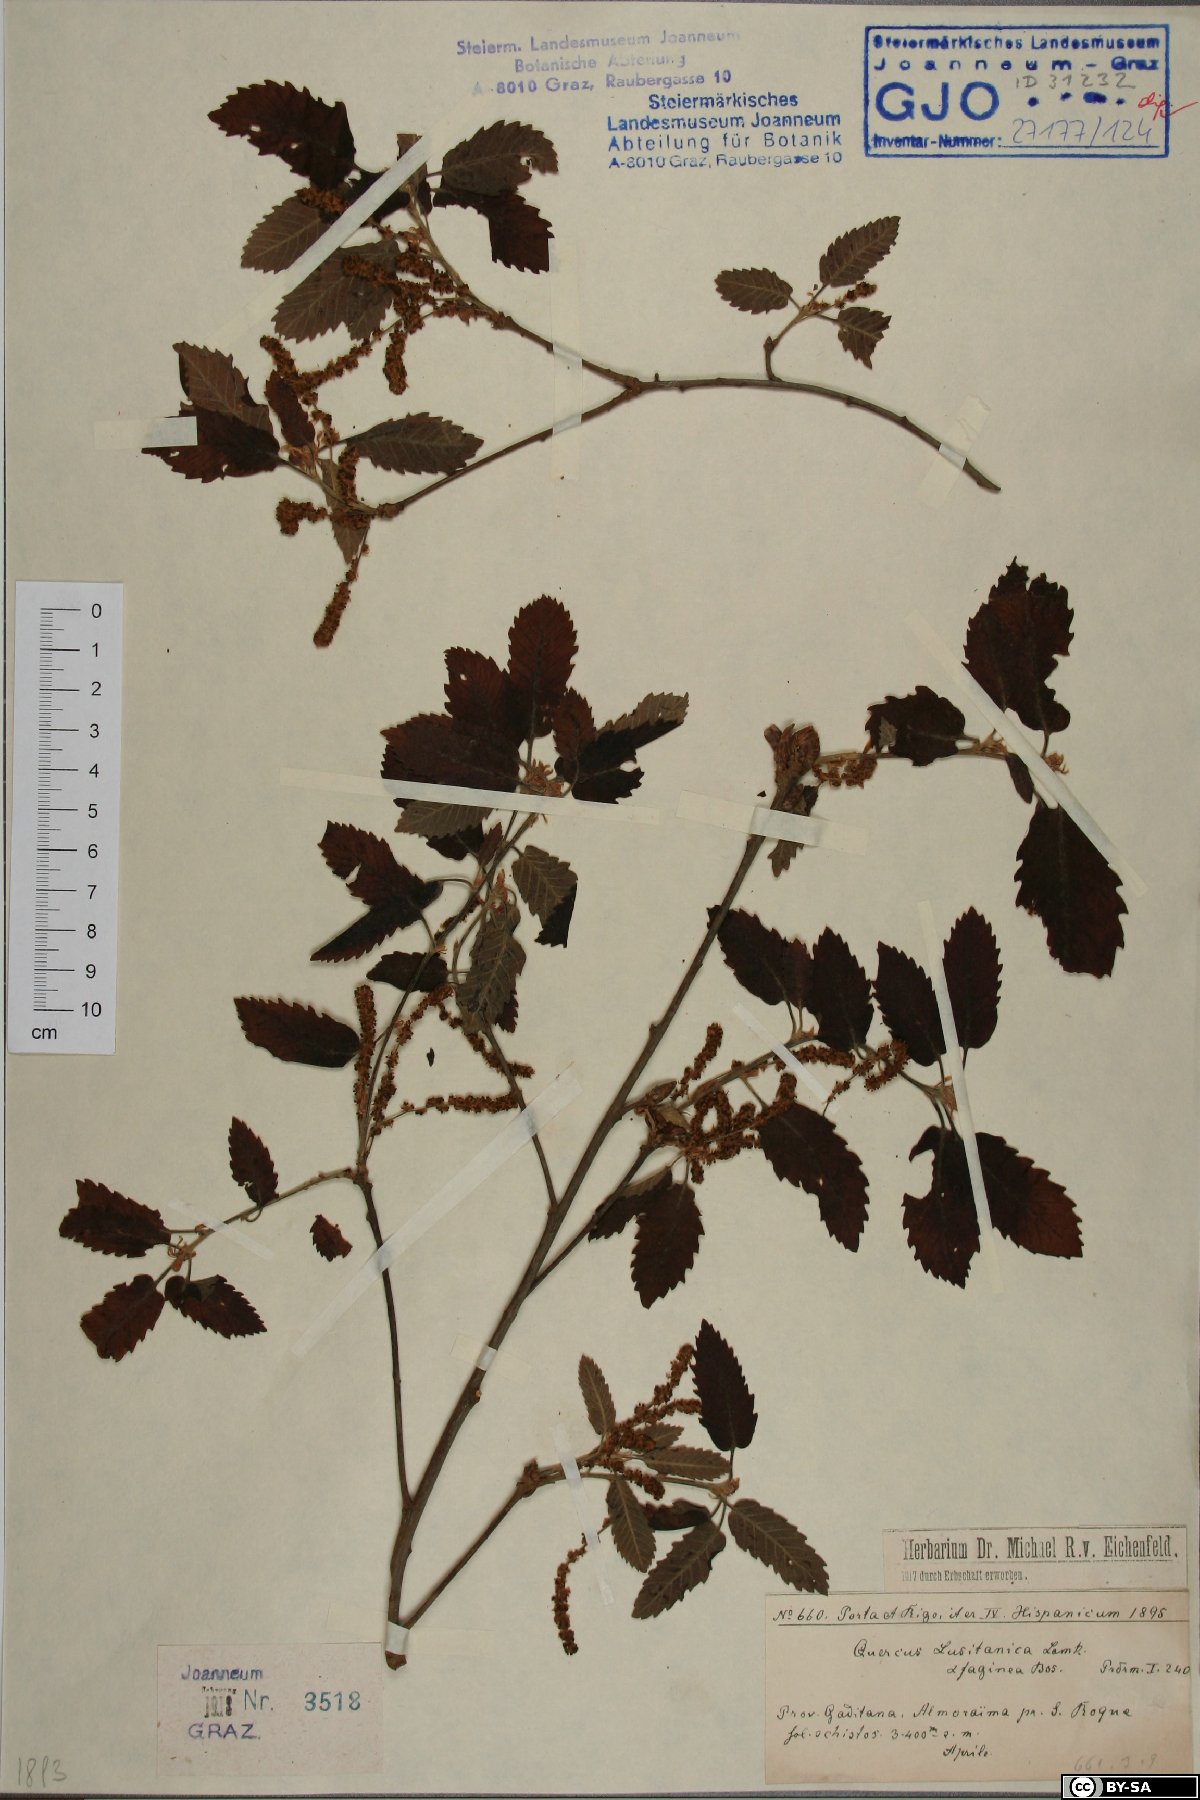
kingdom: Plantae
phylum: Tracheophyta
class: Magnoliopsida
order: Fagales
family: Fagaceae
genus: Quercus
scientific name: Quercus faginea
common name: Gall oak tree
